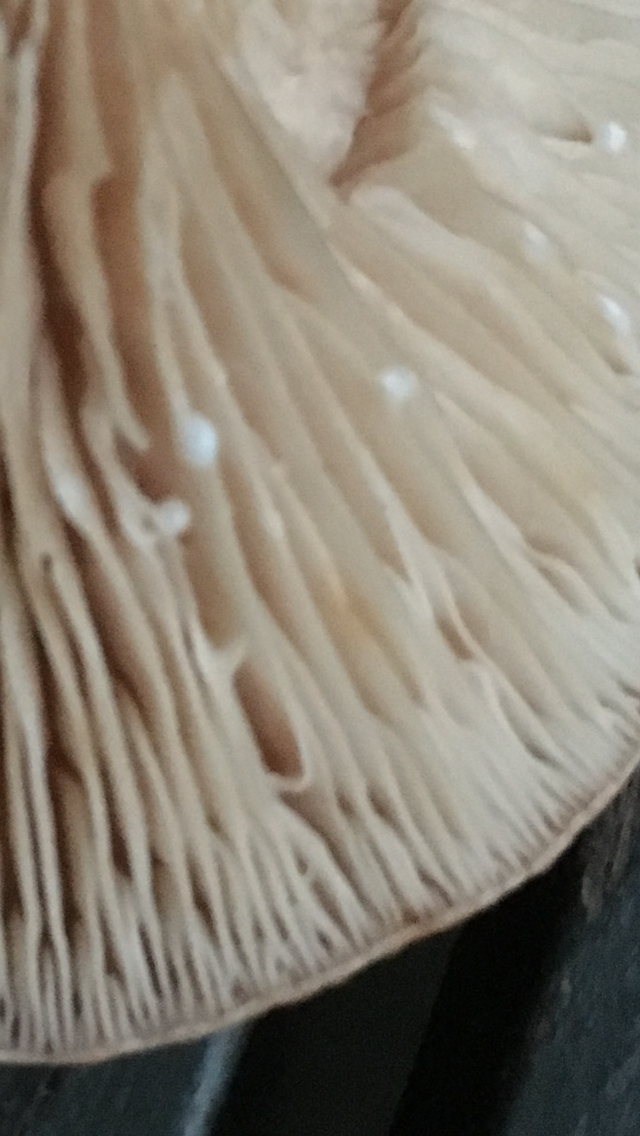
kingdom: Fungi
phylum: Basidiomycota
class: Agaricomycetes
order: Russulales
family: Russulaceae
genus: Lactarius
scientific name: Lactarius
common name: mælkehat
